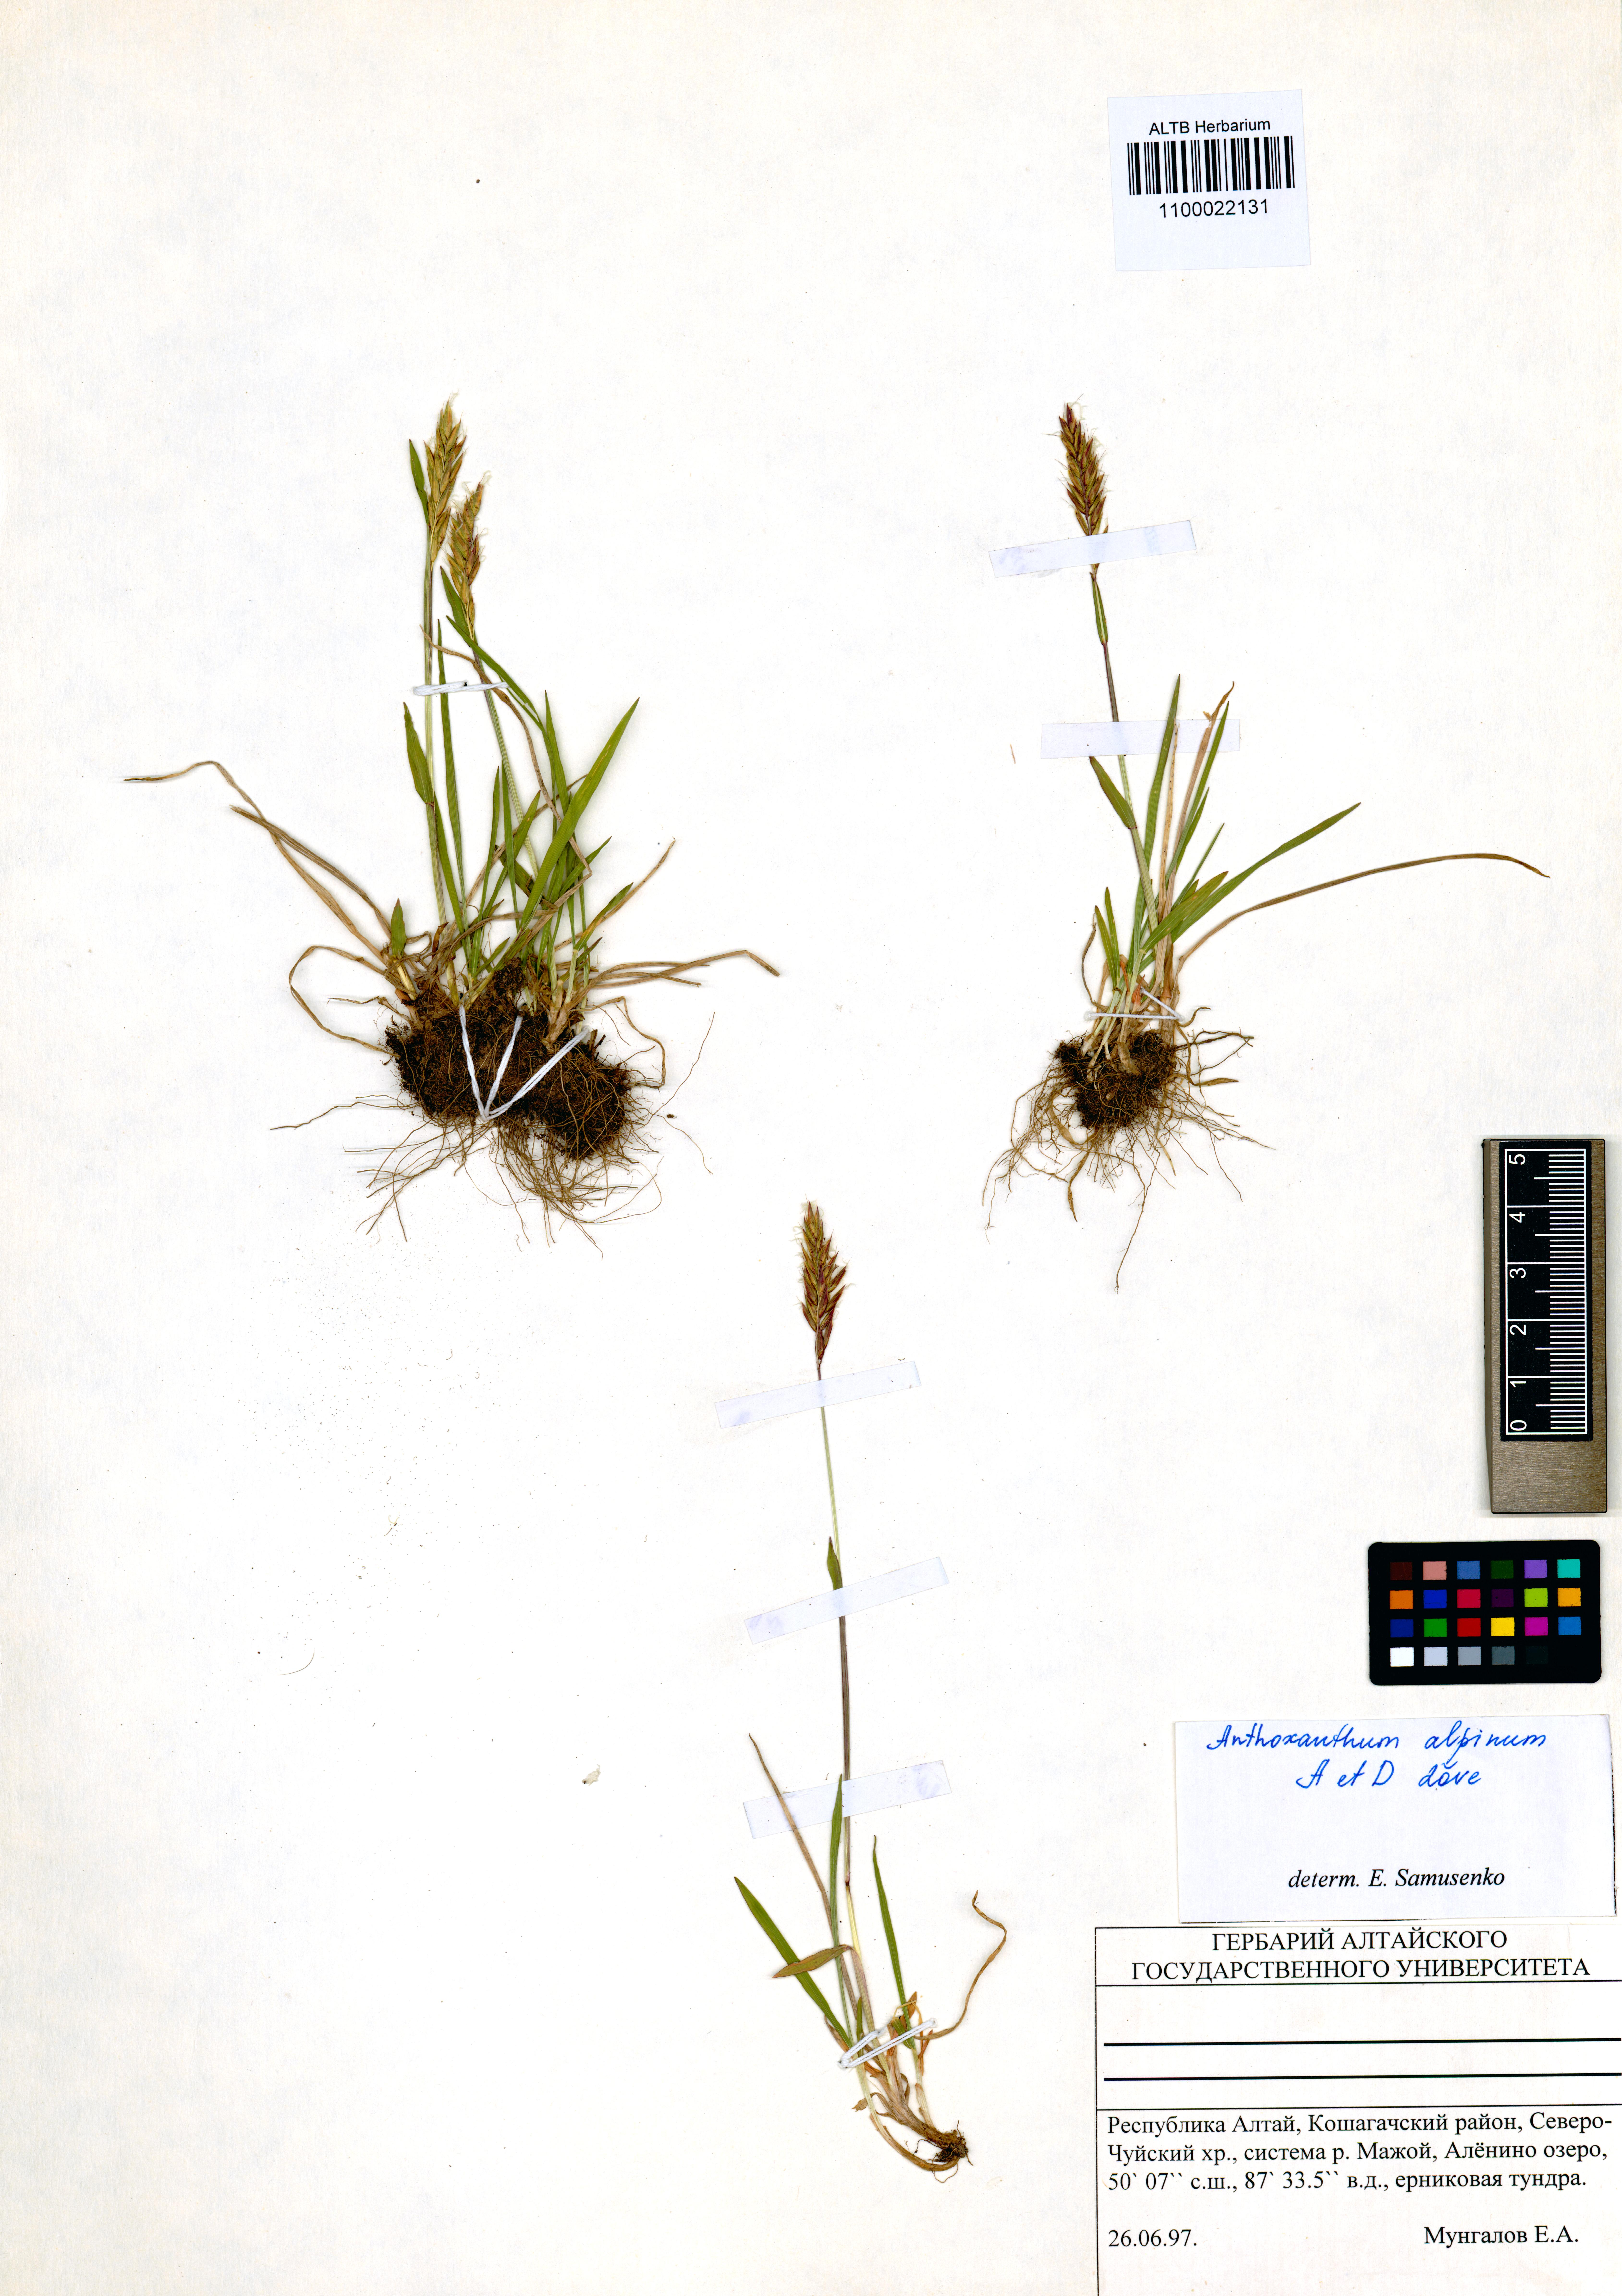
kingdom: Plantae
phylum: Tracheophyta
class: Liliopsida
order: Poales
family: Poaceae
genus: Anthoxanthum
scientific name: Anthoxanthum nipponicum
